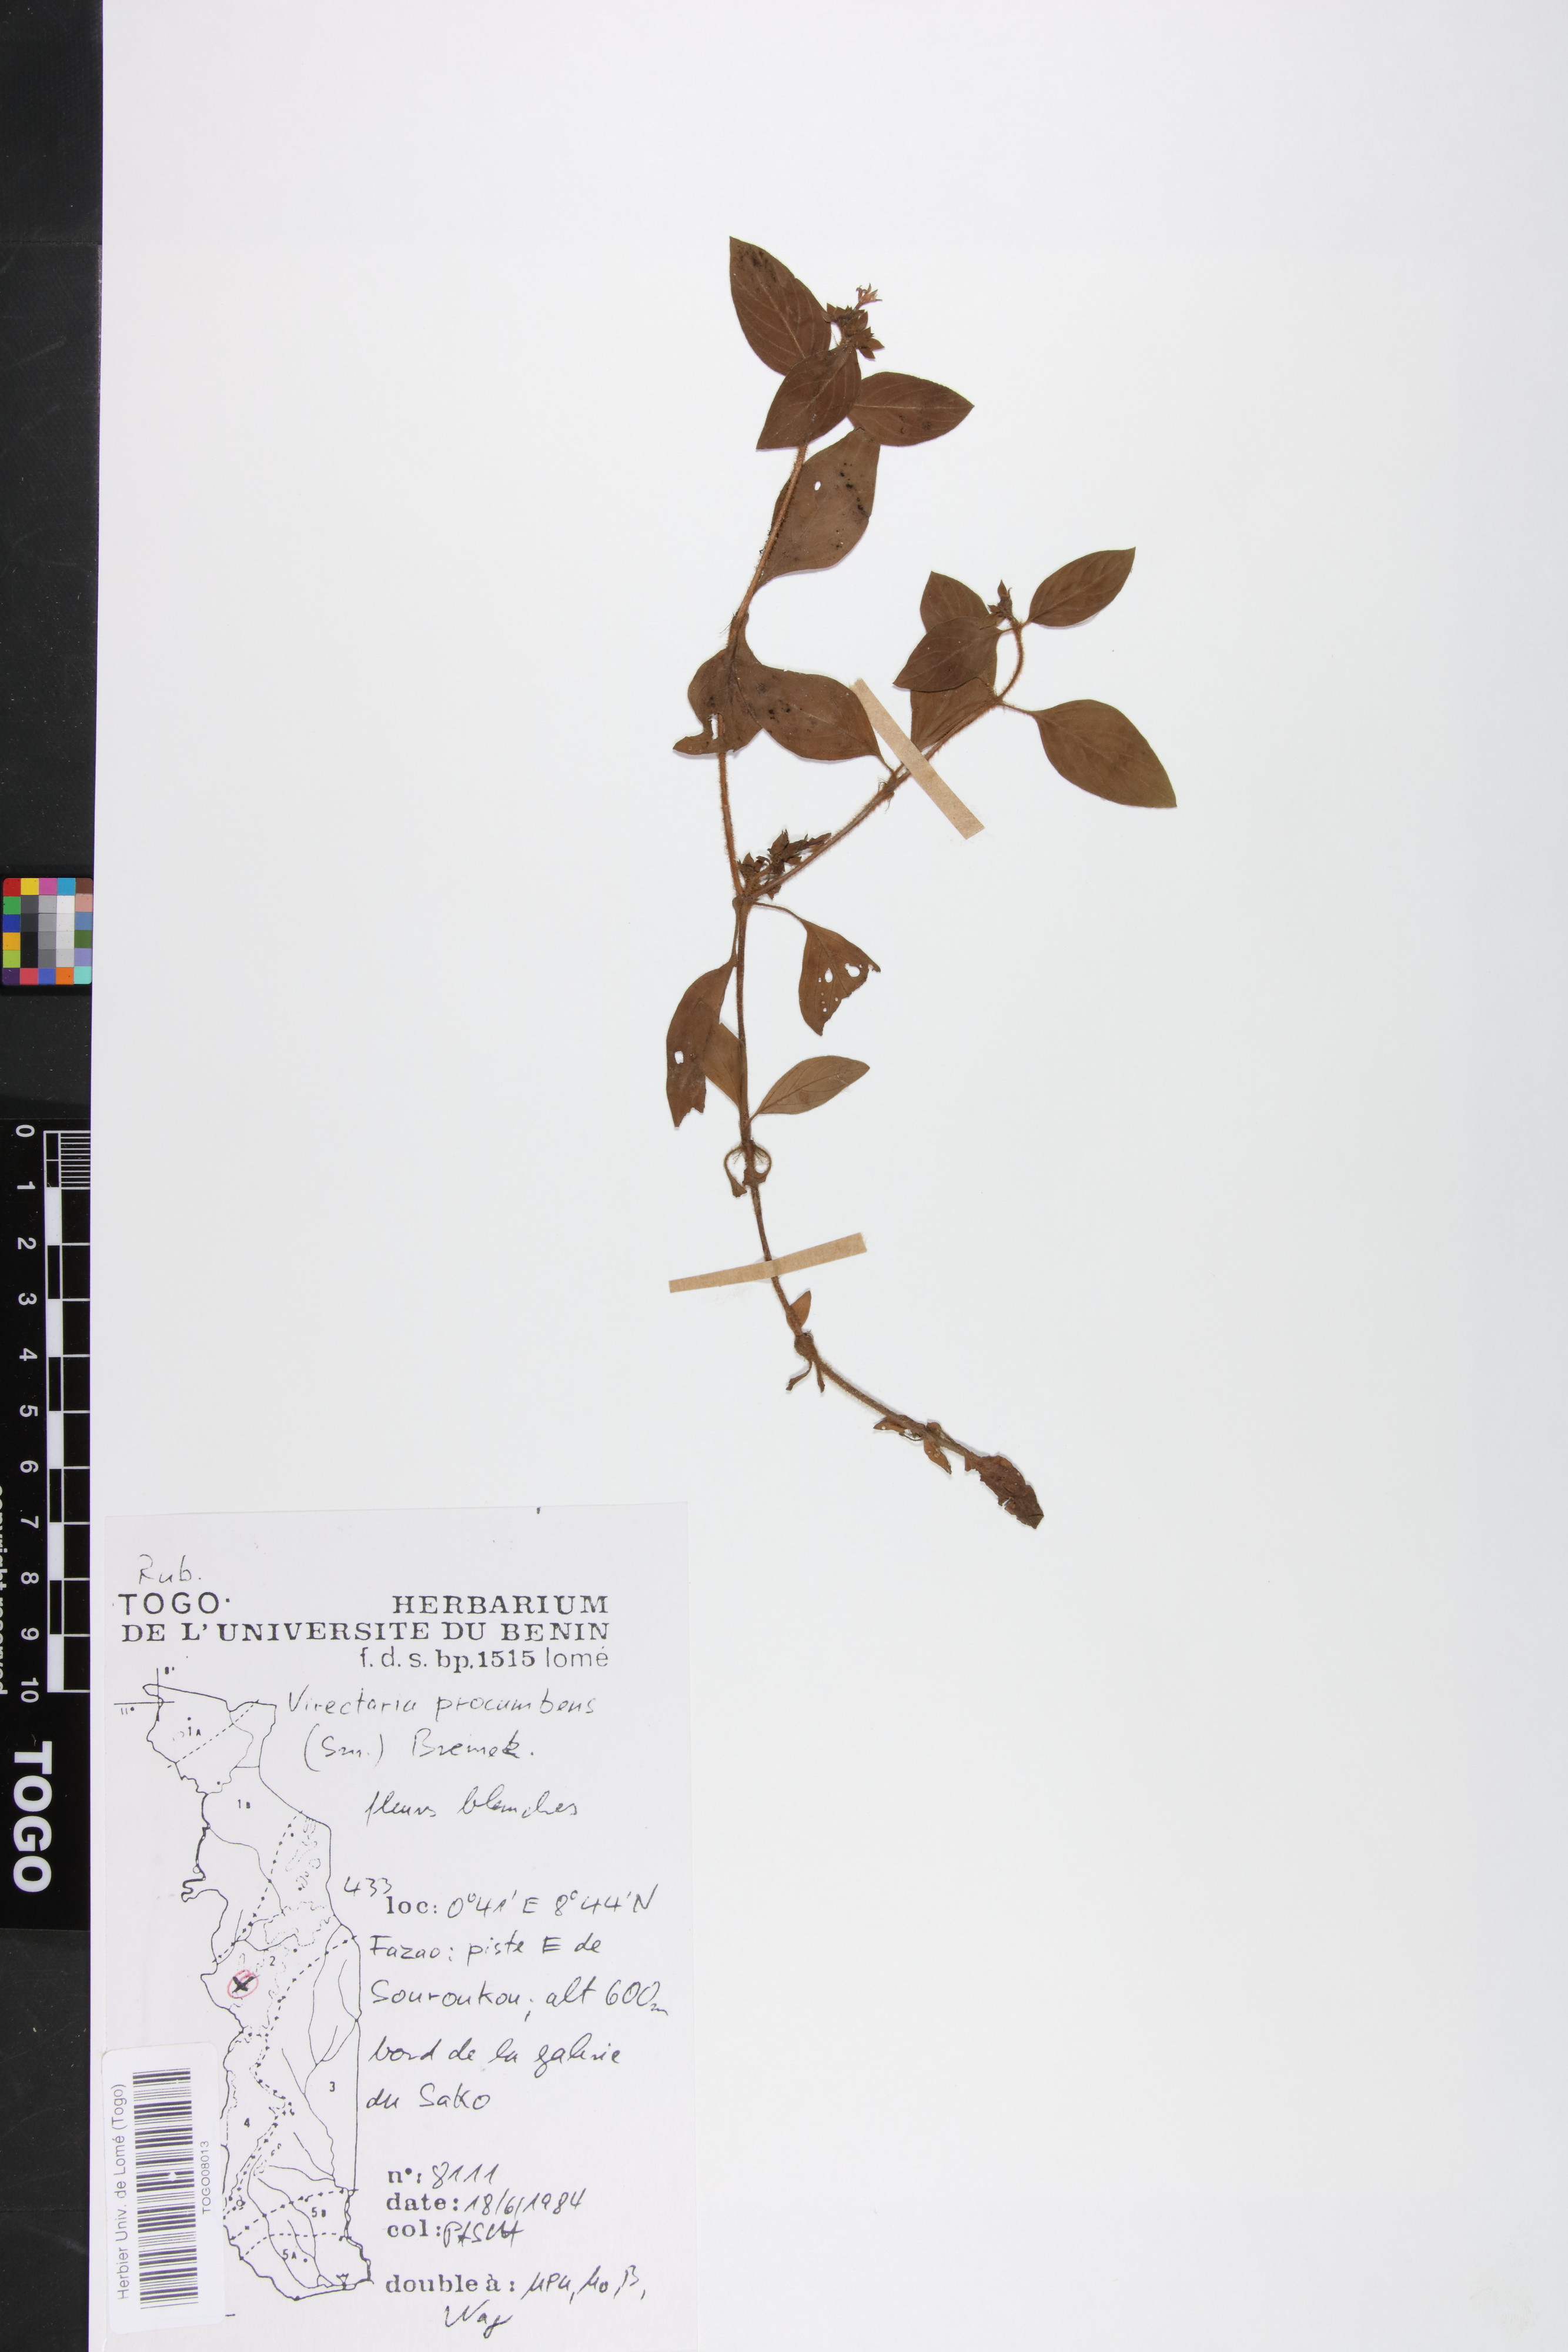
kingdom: Plantae
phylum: Tracheophyta
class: Magnoliopsida
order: Gentianales
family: Rubiaceae
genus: Virectaria
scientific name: Virectaria procumbens
